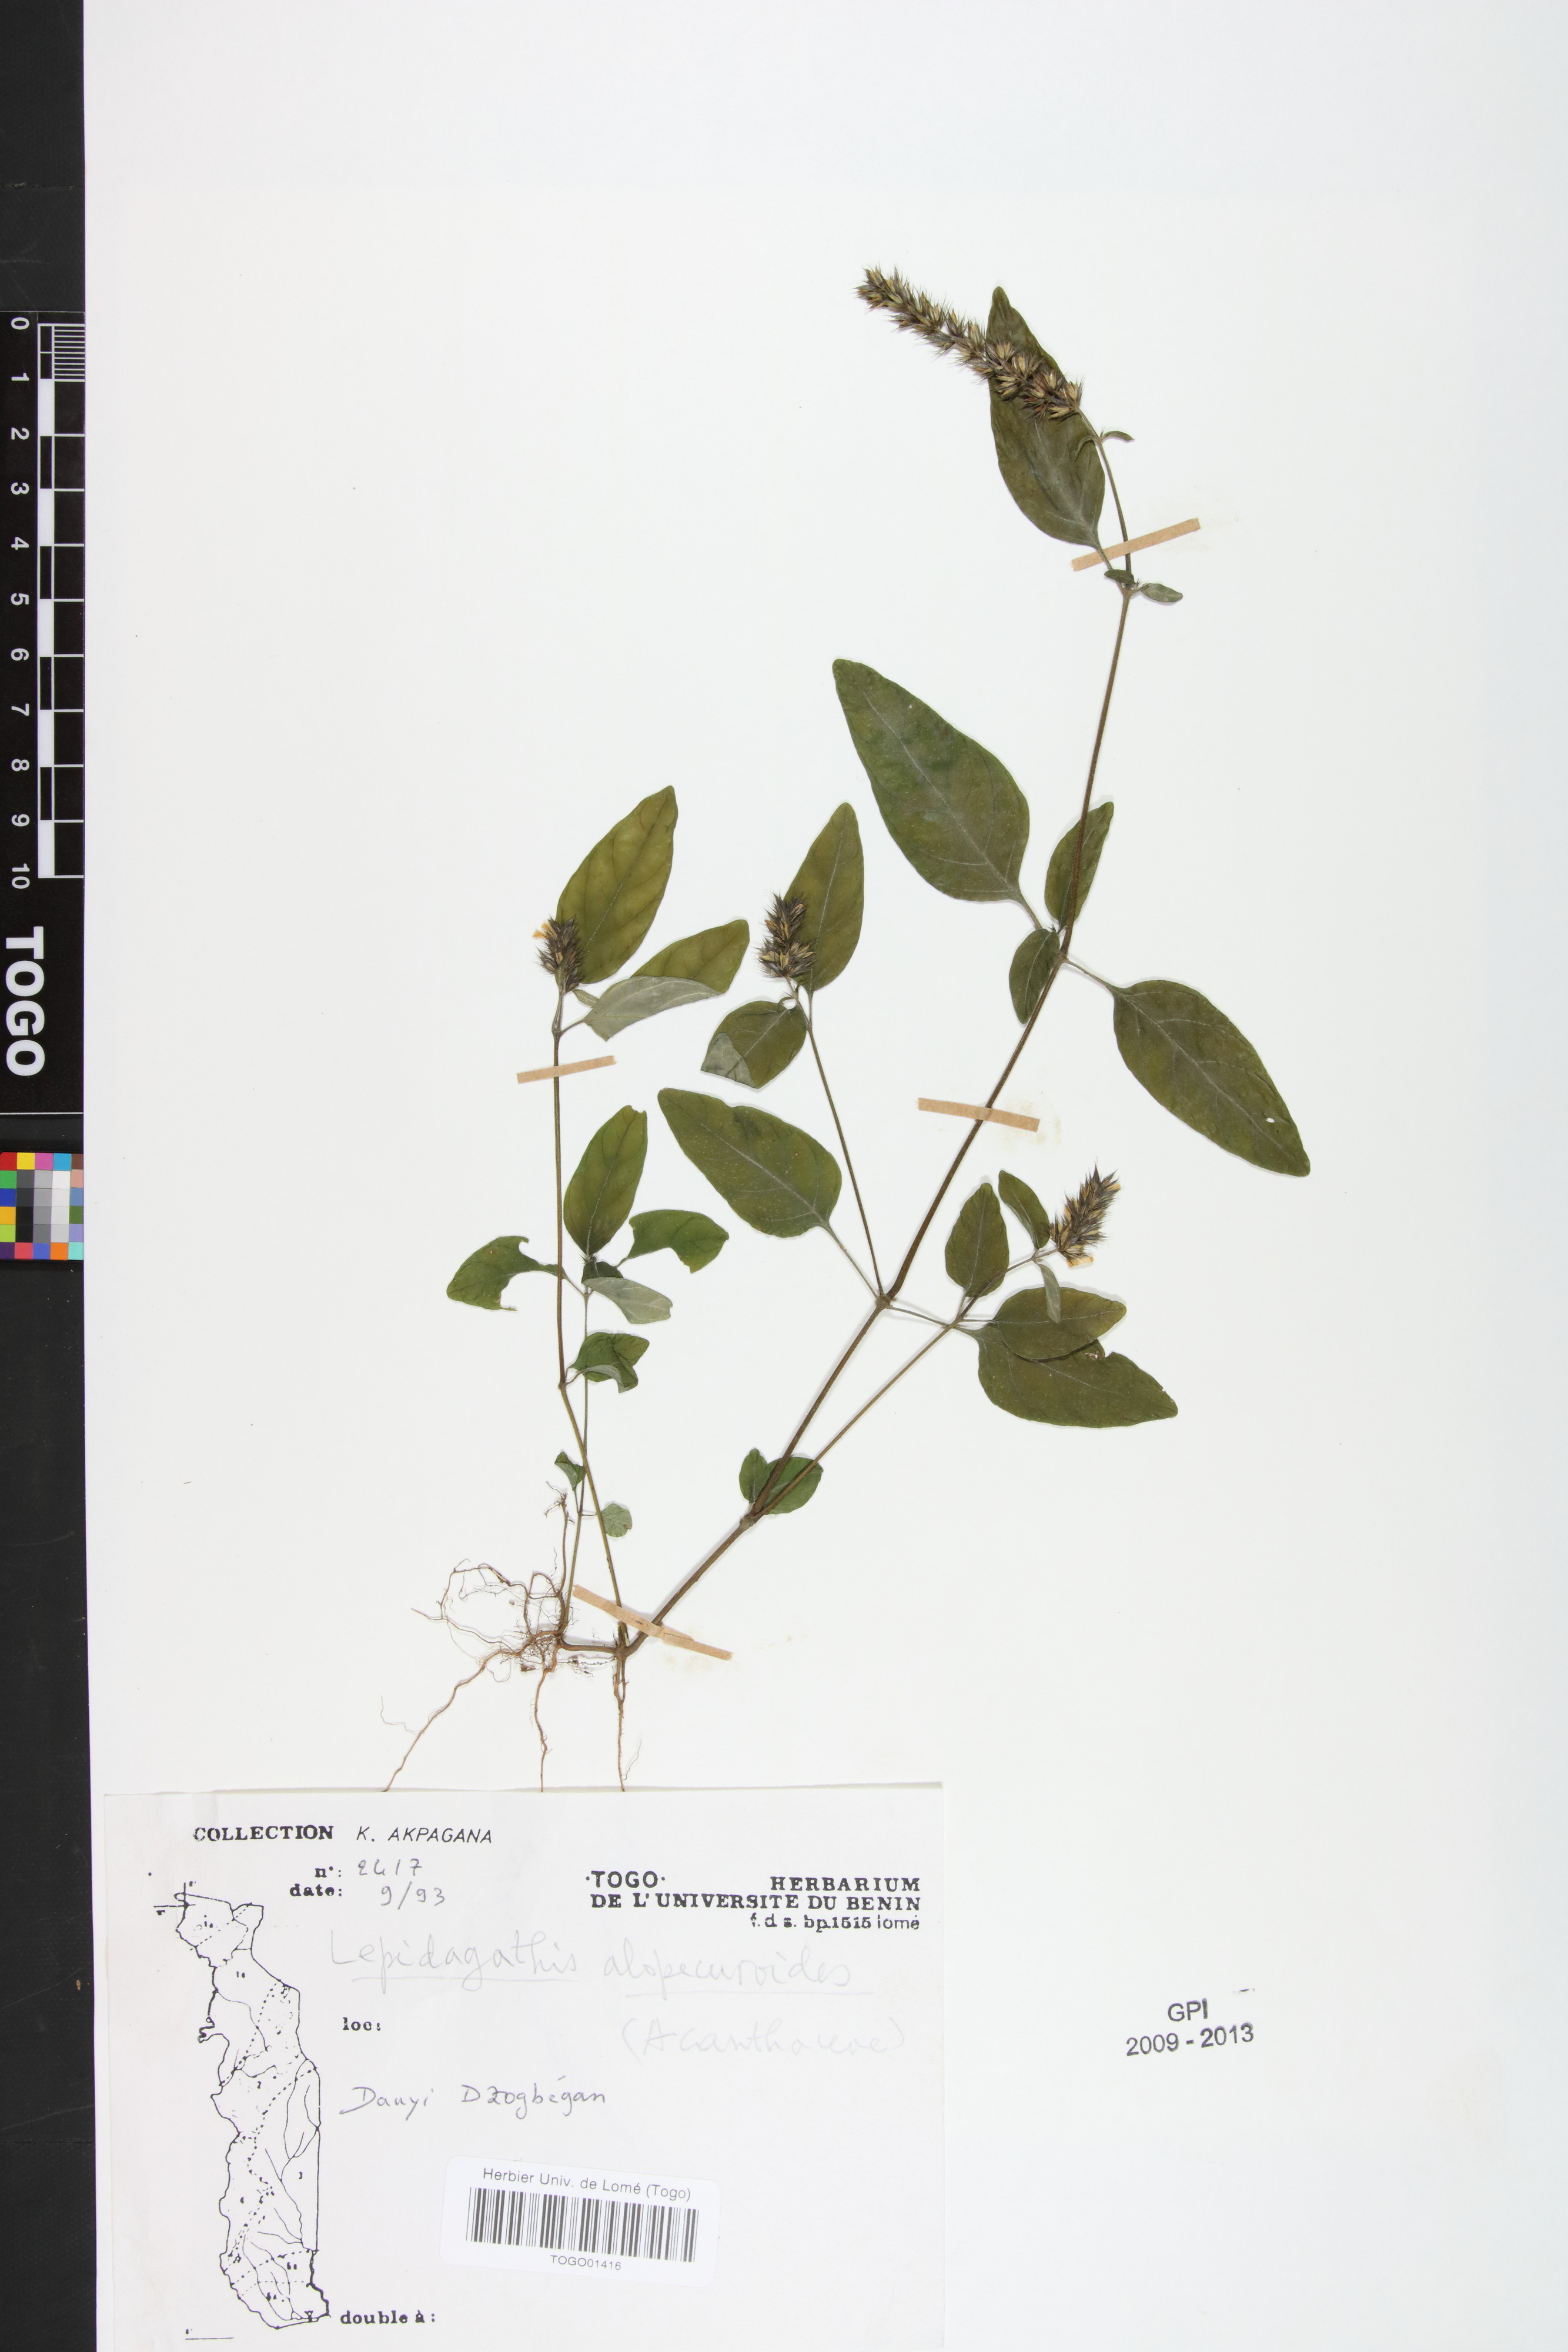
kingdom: Plantae
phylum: Tracheophyta
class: Magnoliopsida
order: Lamiales
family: Acanthaceae
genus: Lepidagathis
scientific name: Lepidagathis alopecuroidea
